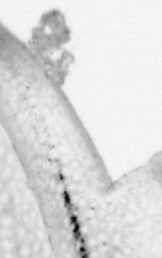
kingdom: Animalia
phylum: Chordata
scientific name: Chordata
